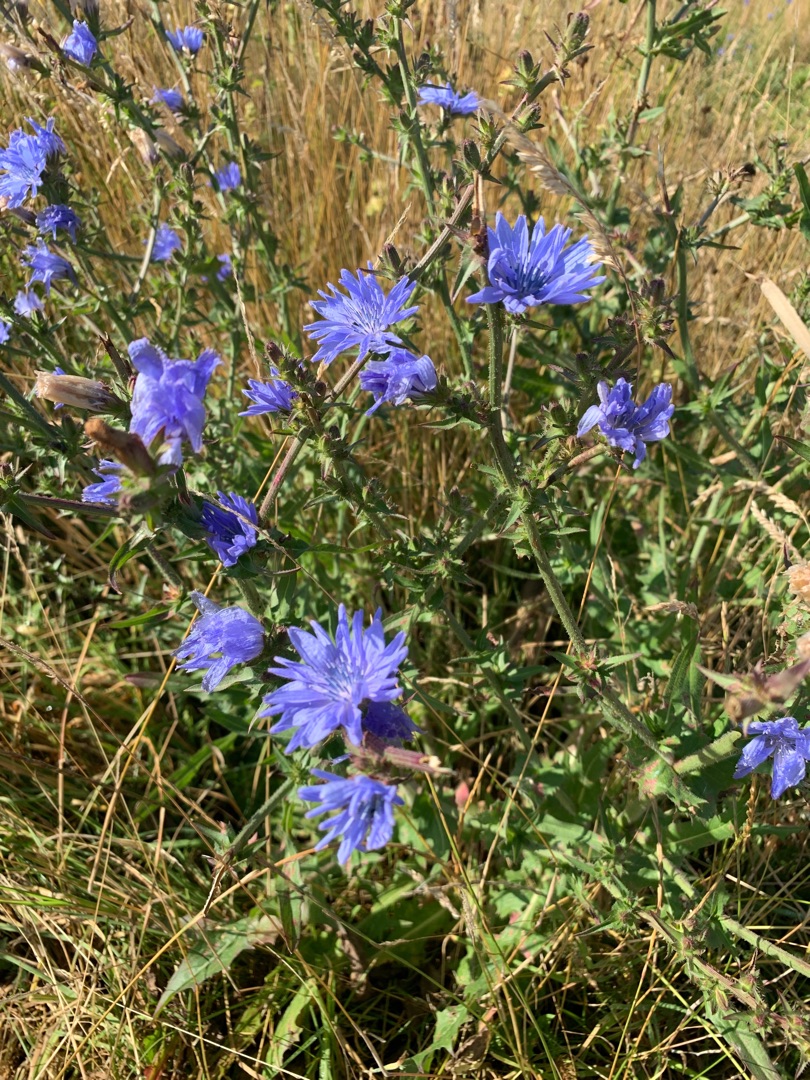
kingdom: Plantae
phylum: Tracheophyta
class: Magnoliopsida
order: Asterales
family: Asteraceae
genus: Cichorium
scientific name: Cichorium intybus
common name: Cikorie
